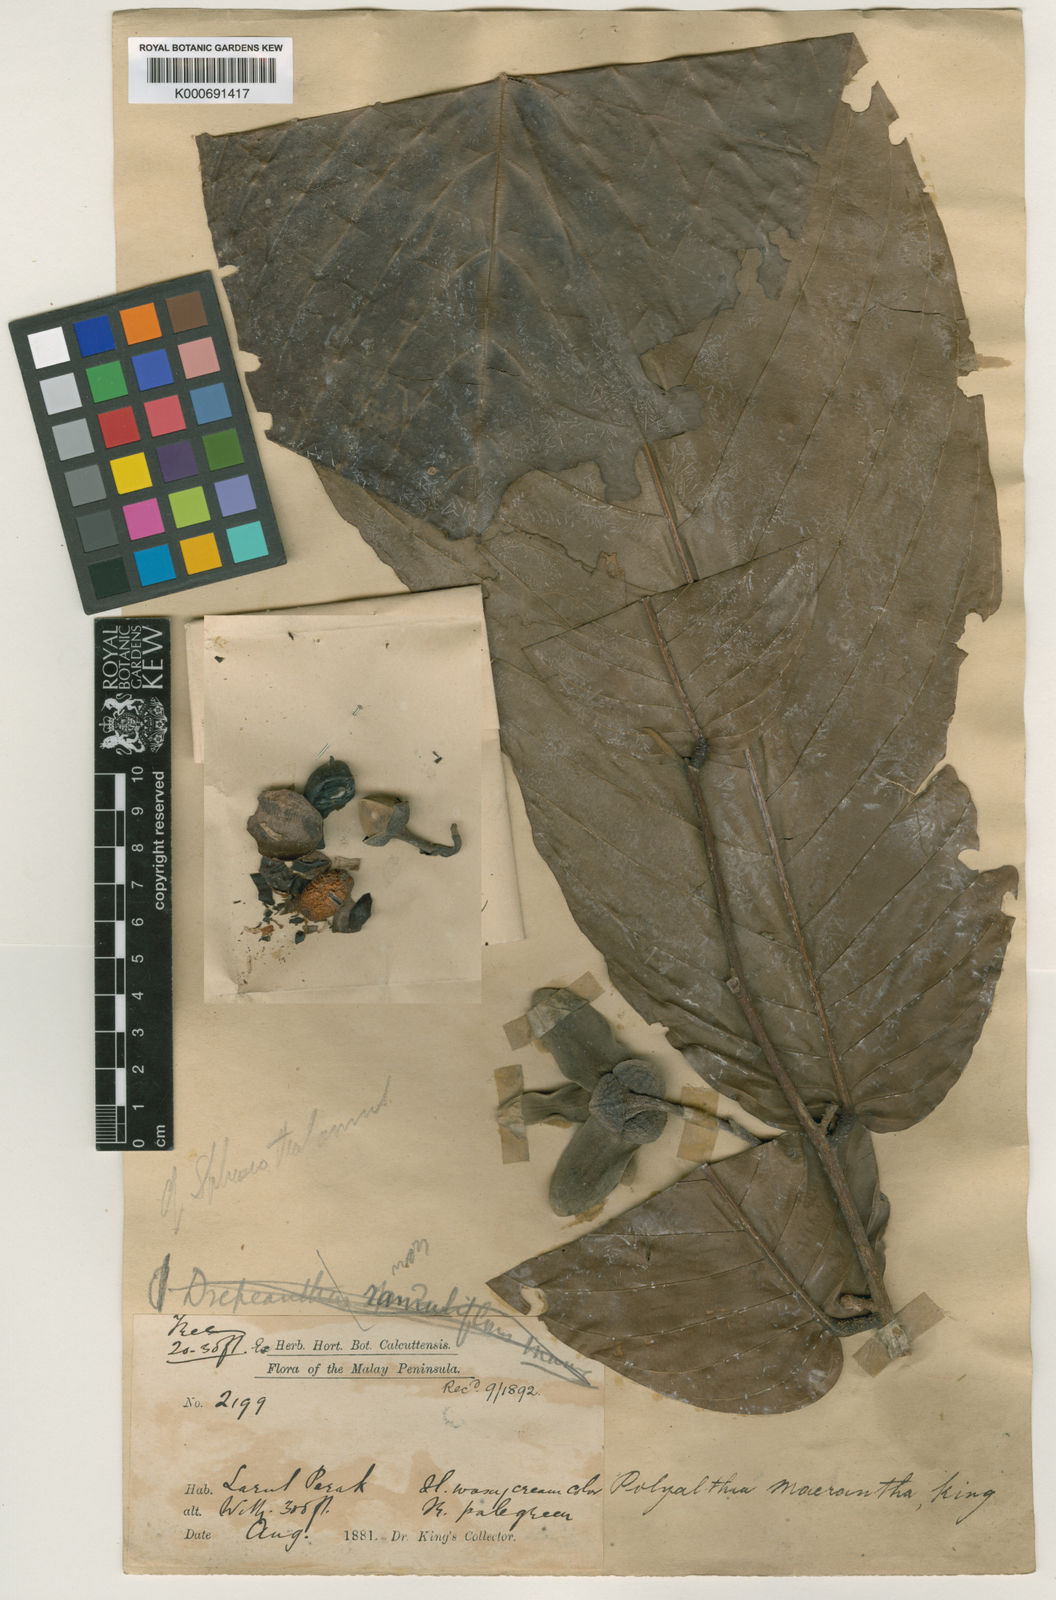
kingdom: Plantae
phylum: Tracheophyta
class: Magnoliopsida
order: Magnoliales
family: Annonaceae
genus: Enicosanthum
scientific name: Enicosanthum membranifolium
